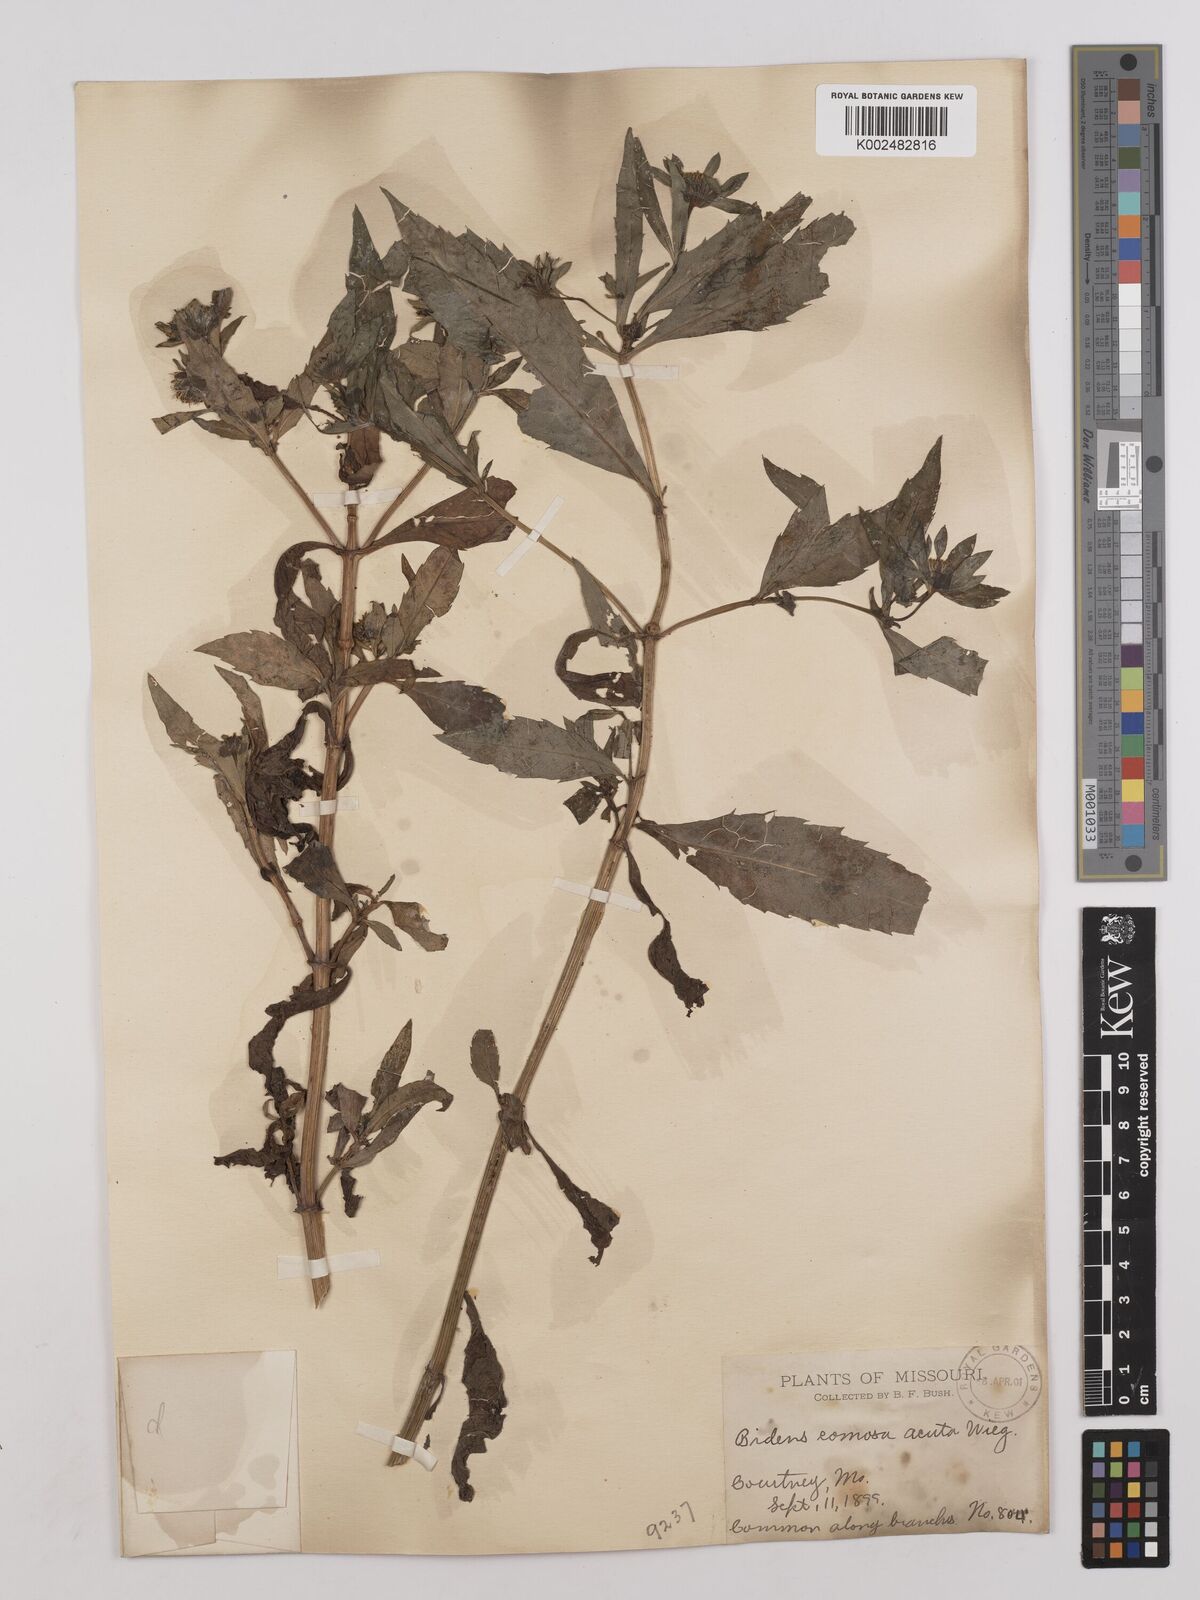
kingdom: Plantae
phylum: Tracheophyta
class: Magnoliopsida
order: Asterales
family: Asteraceae
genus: Bidens
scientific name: Bidens tripartita
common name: Trifid bur-marigold
